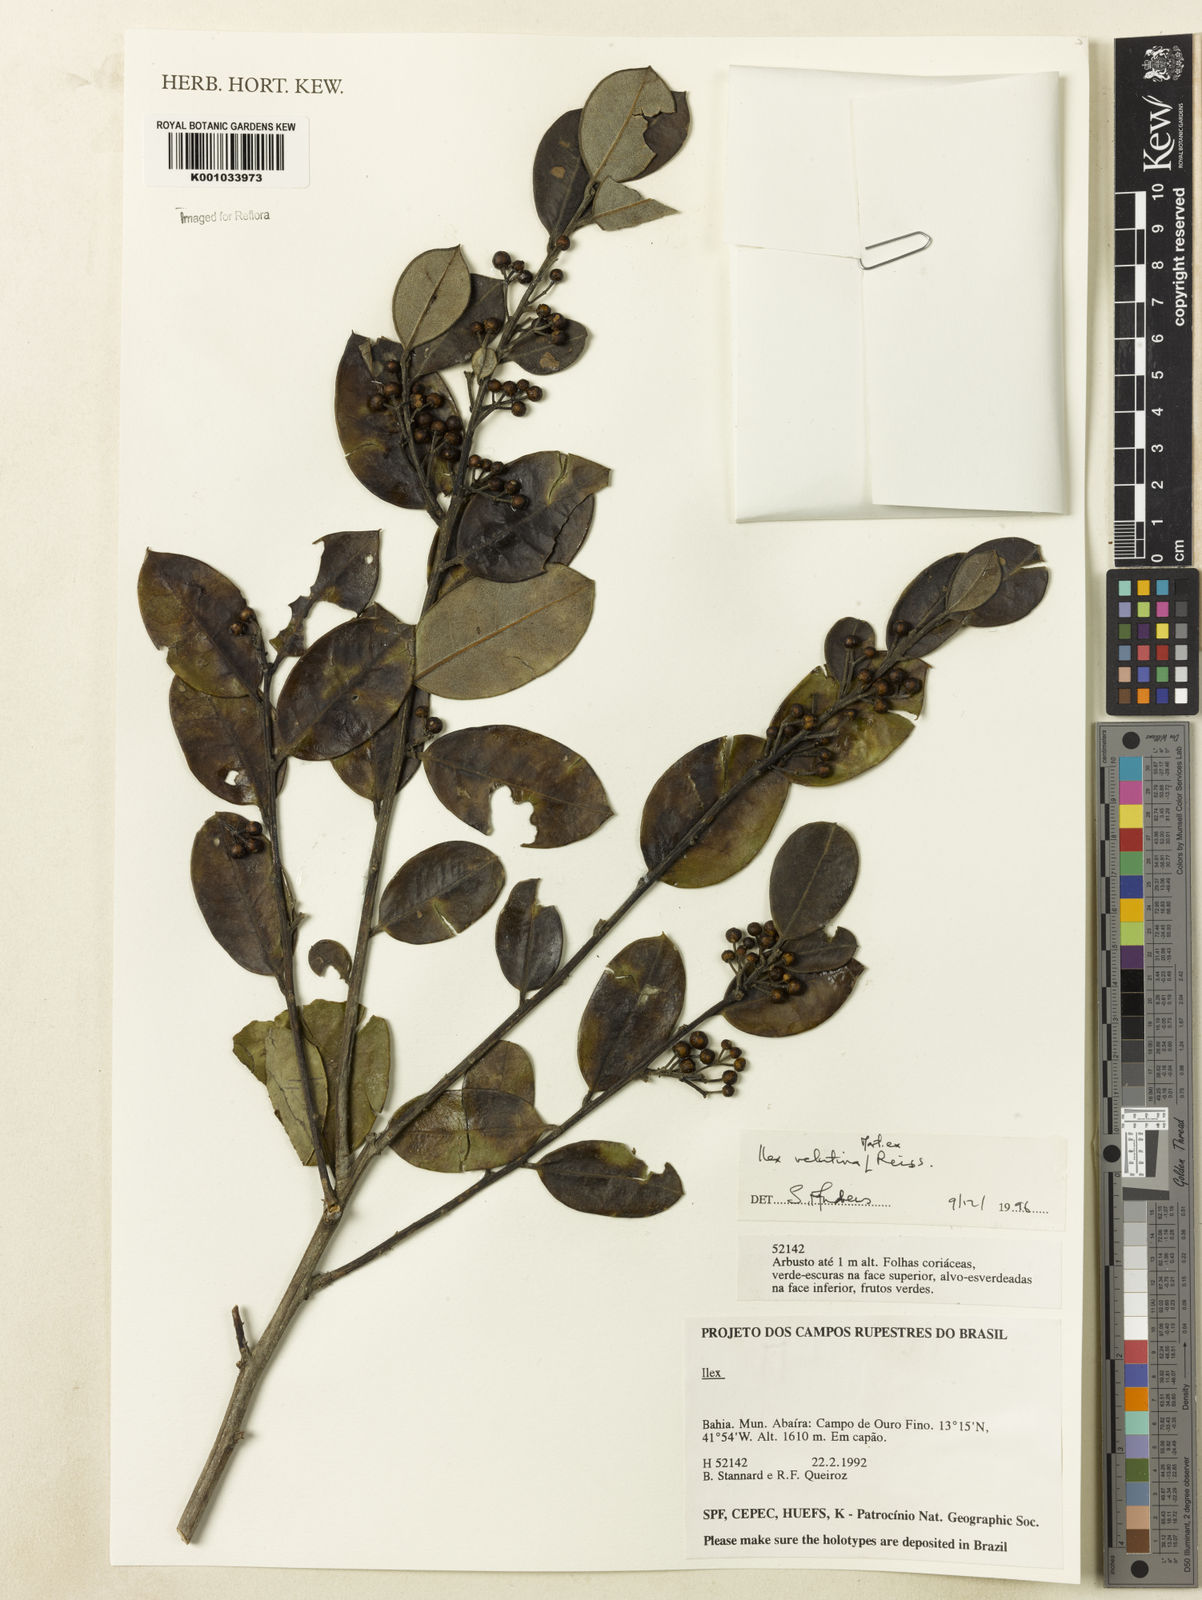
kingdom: Plantae
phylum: Tracheophyta
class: Magnoliopsida
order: Aquifoliales
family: Aquifoliaceae
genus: Ilex
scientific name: Ilex velutina
